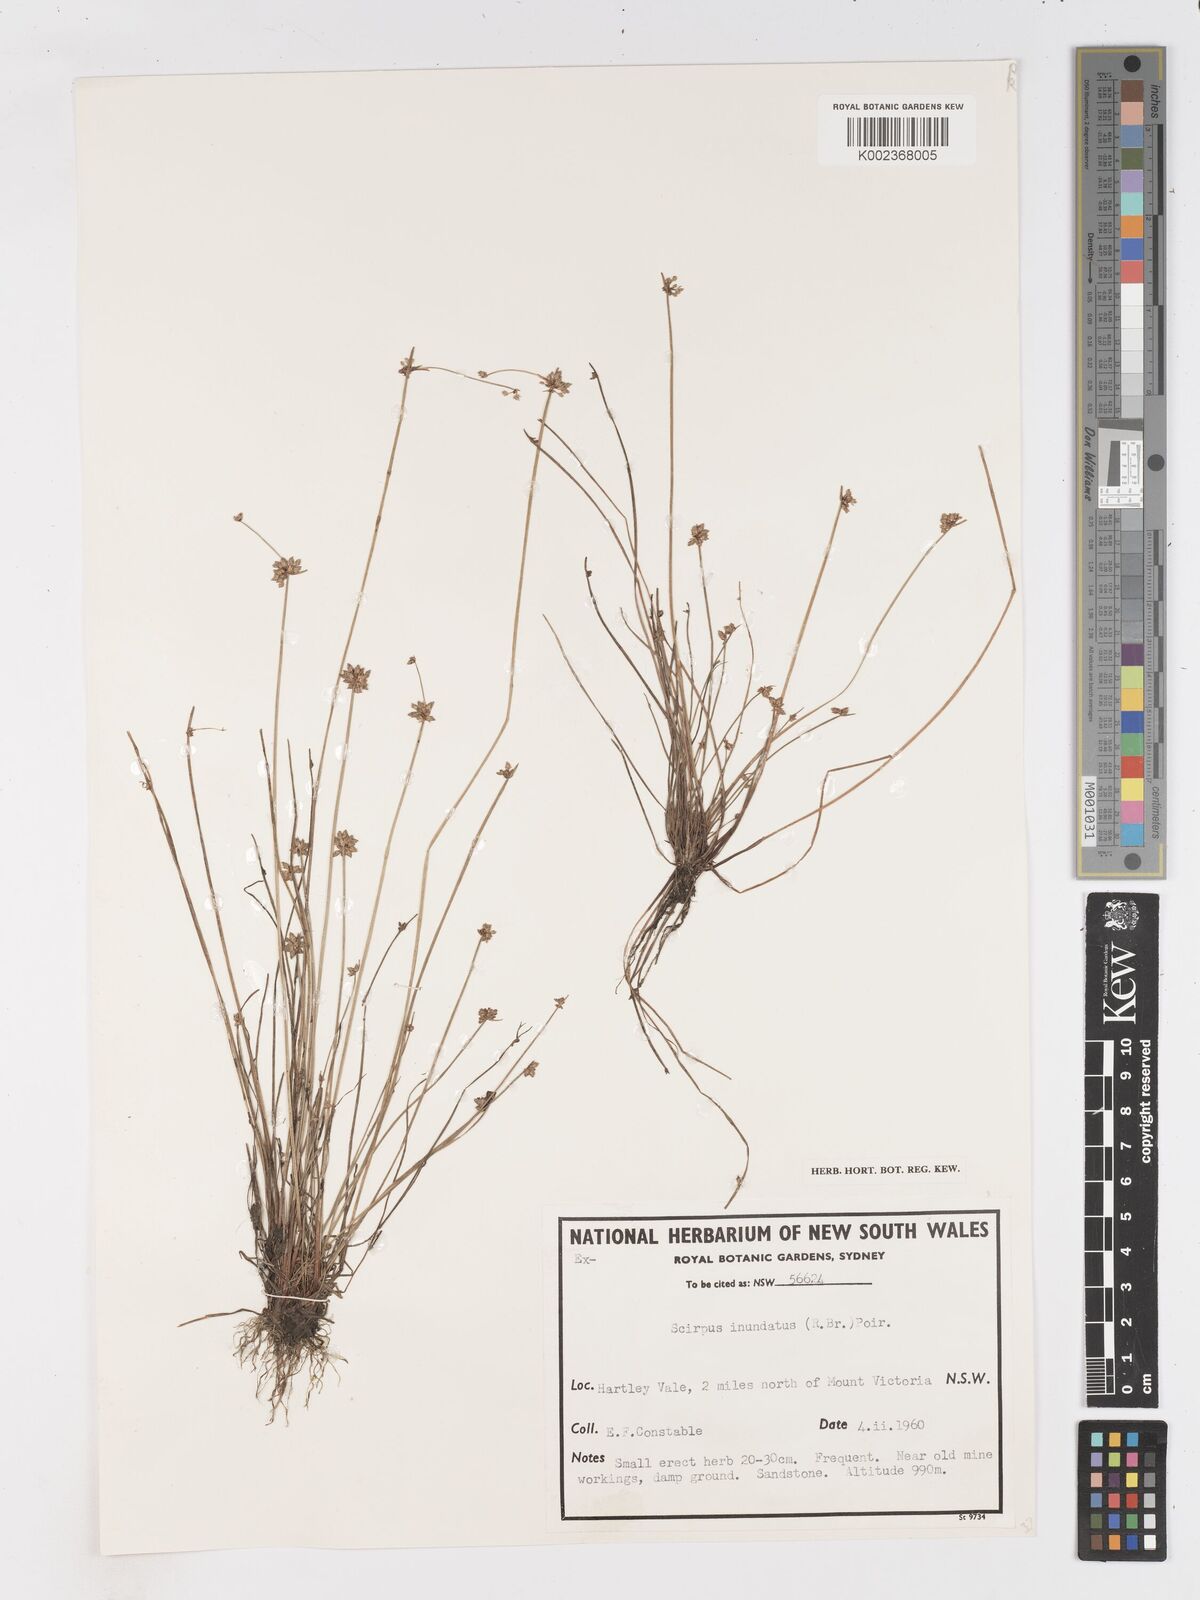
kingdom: Plantae
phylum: Tracheophyta
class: Liliopsida
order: Poales
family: Cyperaceae
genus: Isolepis
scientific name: Isolepis inundata
